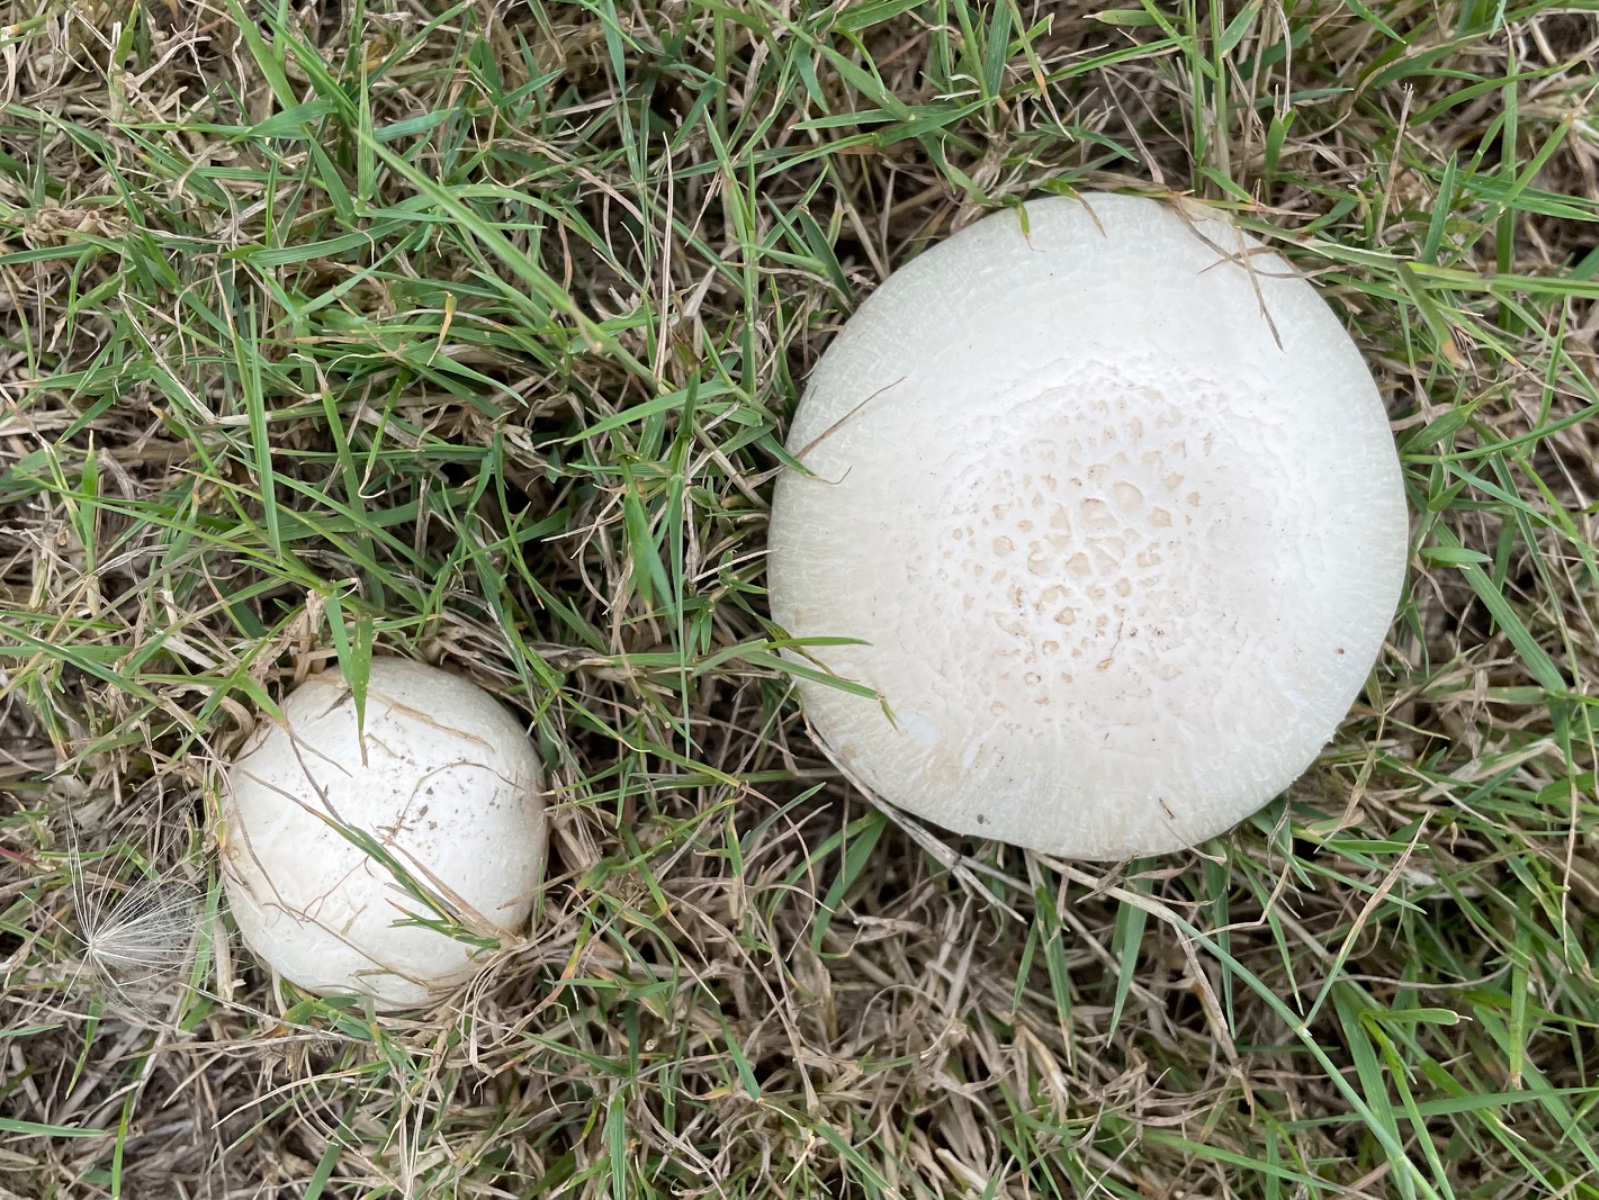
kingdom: Fungi
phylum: Basidiomycota
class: Agaricomycetes
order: Agaricales
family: Agaricaceae
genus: Agaricus
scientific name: Agaricus campestris
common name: mark-champignon
